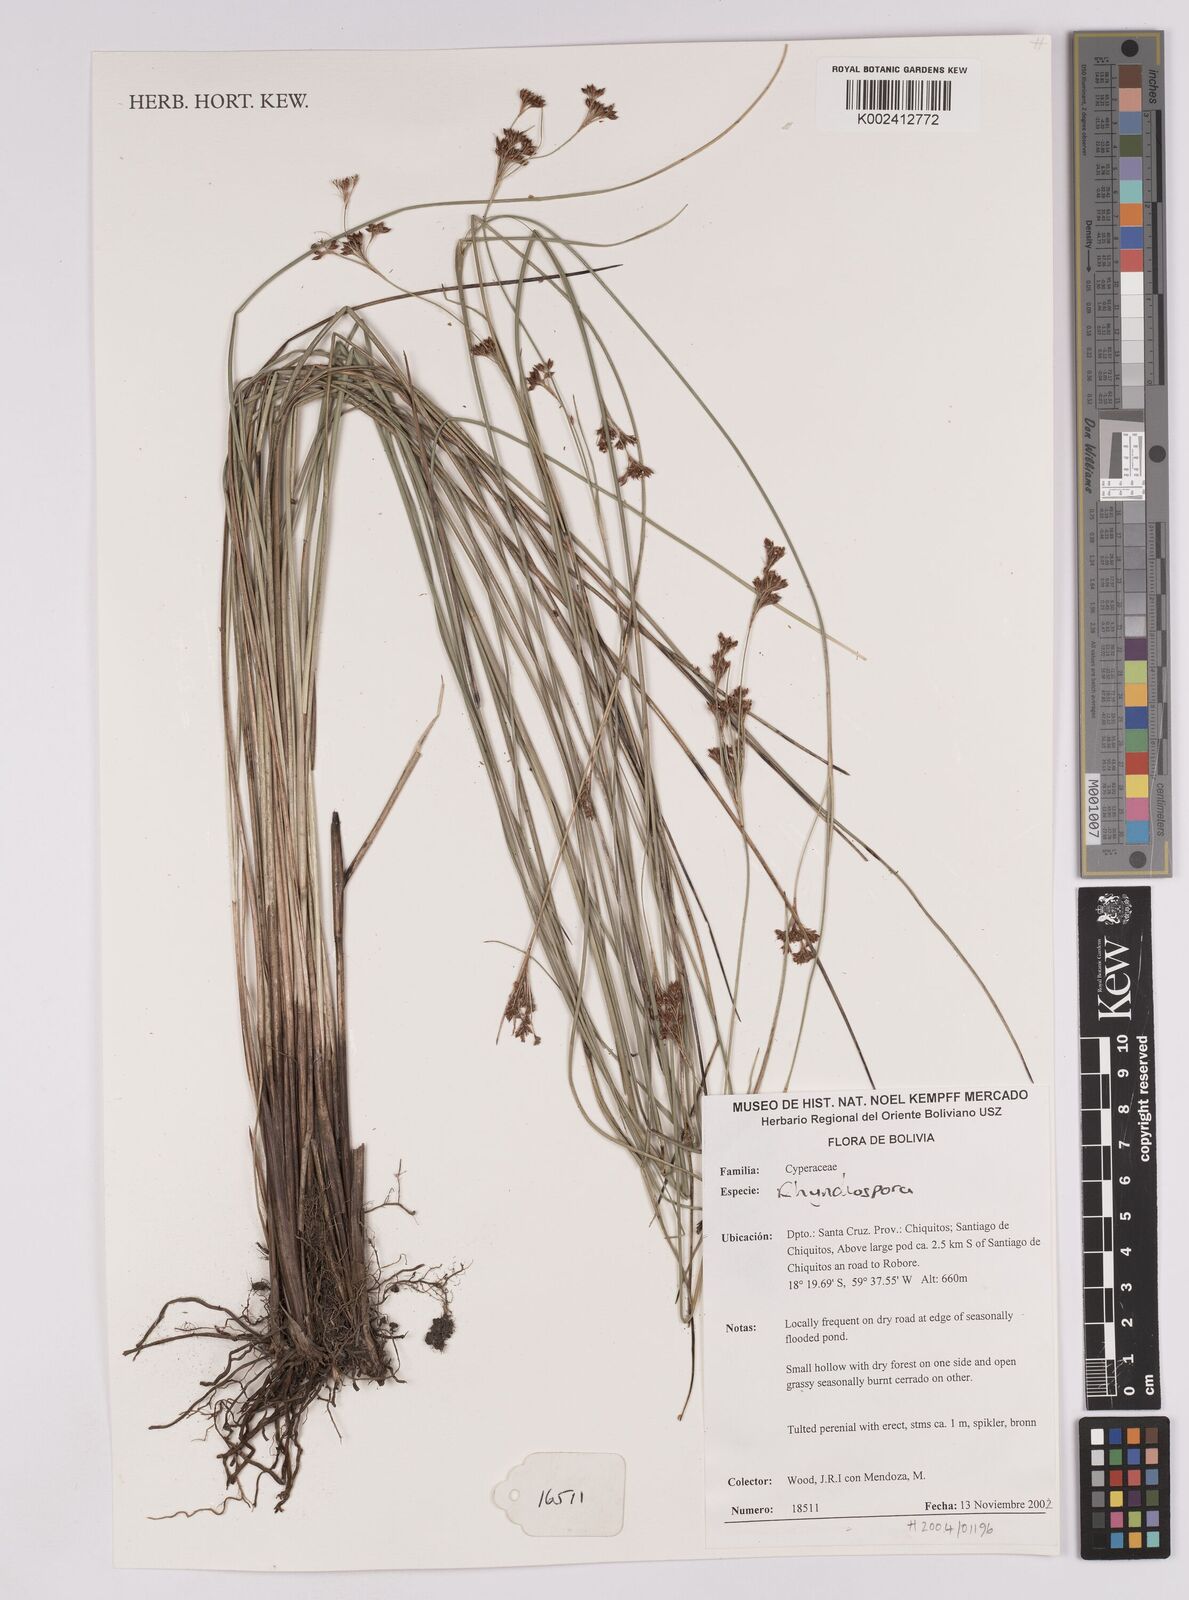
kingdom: Plantae
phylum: Tracheophyta
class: Liliopsida
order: Poales
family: Cyperaceae
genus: Rhynchospora
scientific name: Rhynchospora
